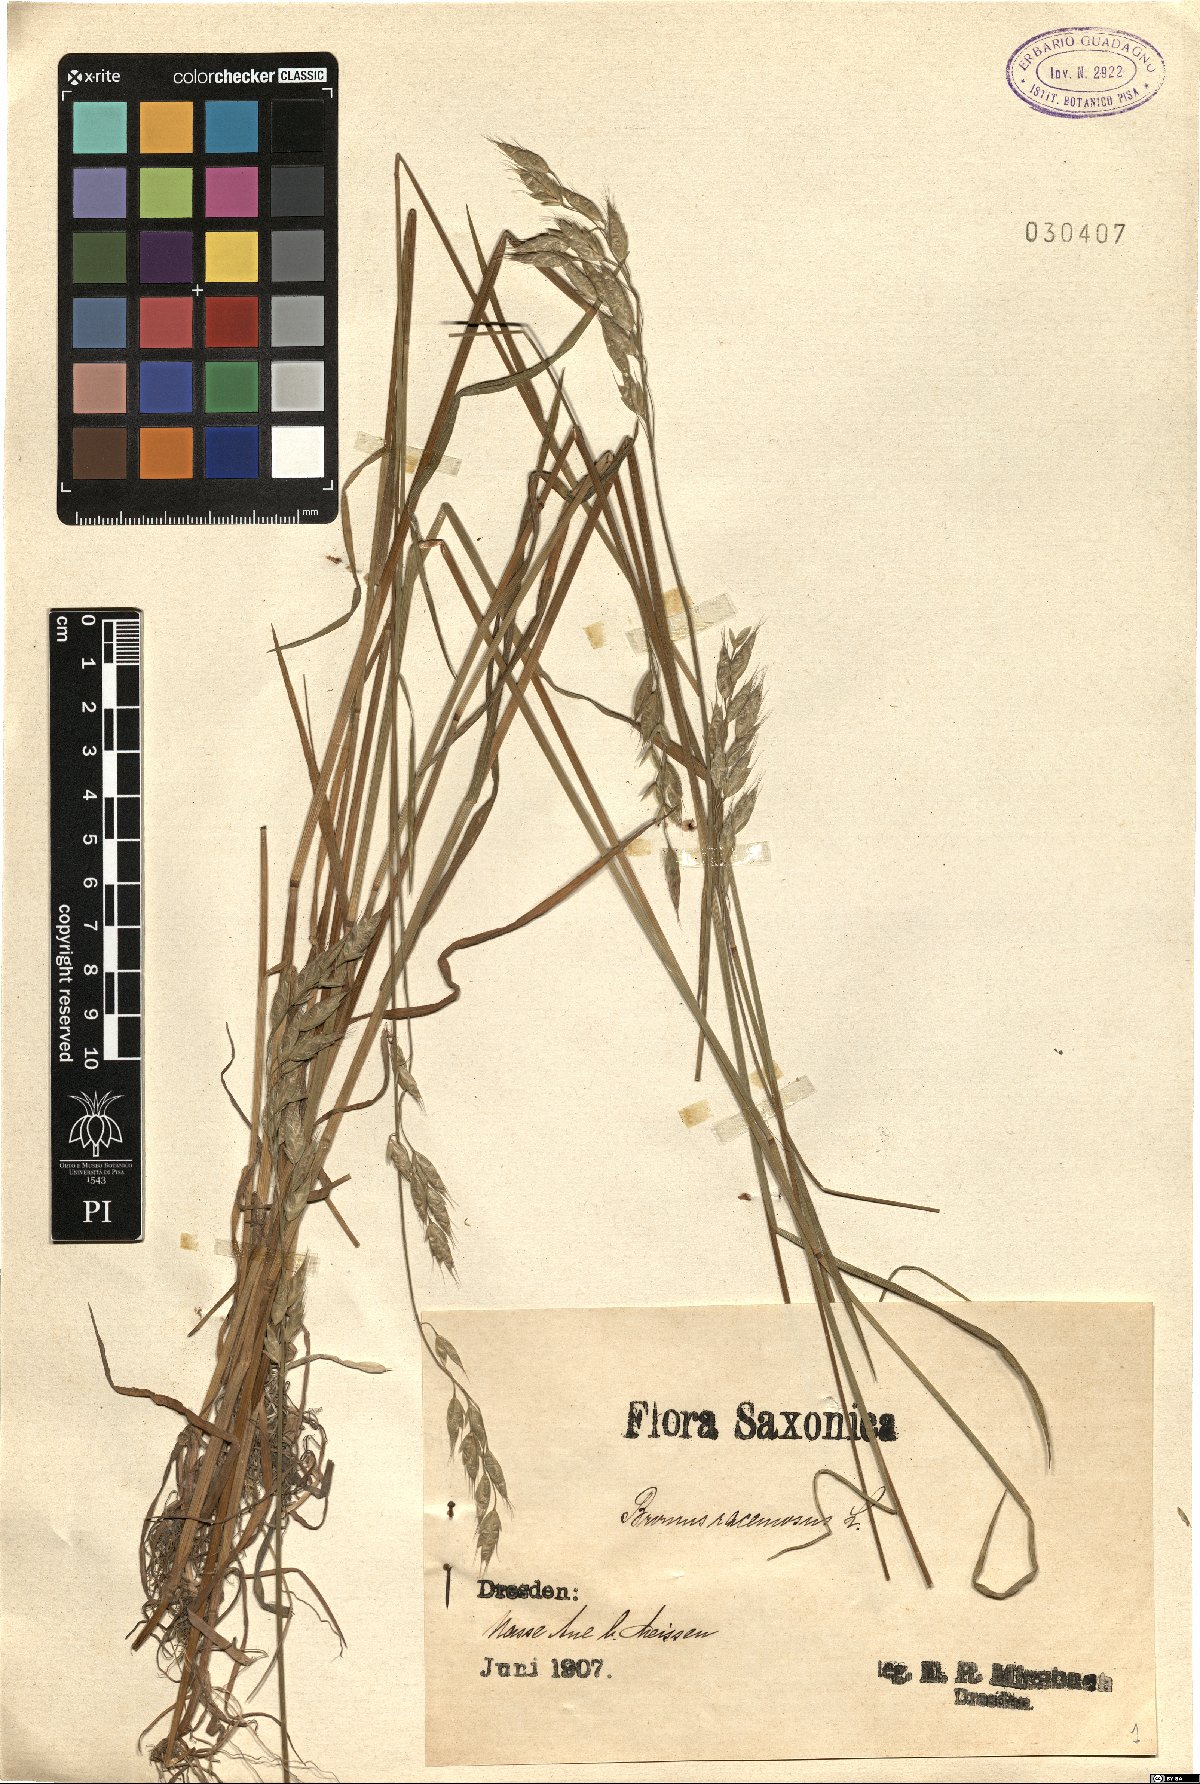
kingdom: Plantae
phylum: Tracheophyta
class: Liliopsida
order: Poales
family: Poaceae
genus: Bromus
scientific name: Bromus racemosus
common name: Bald brome
